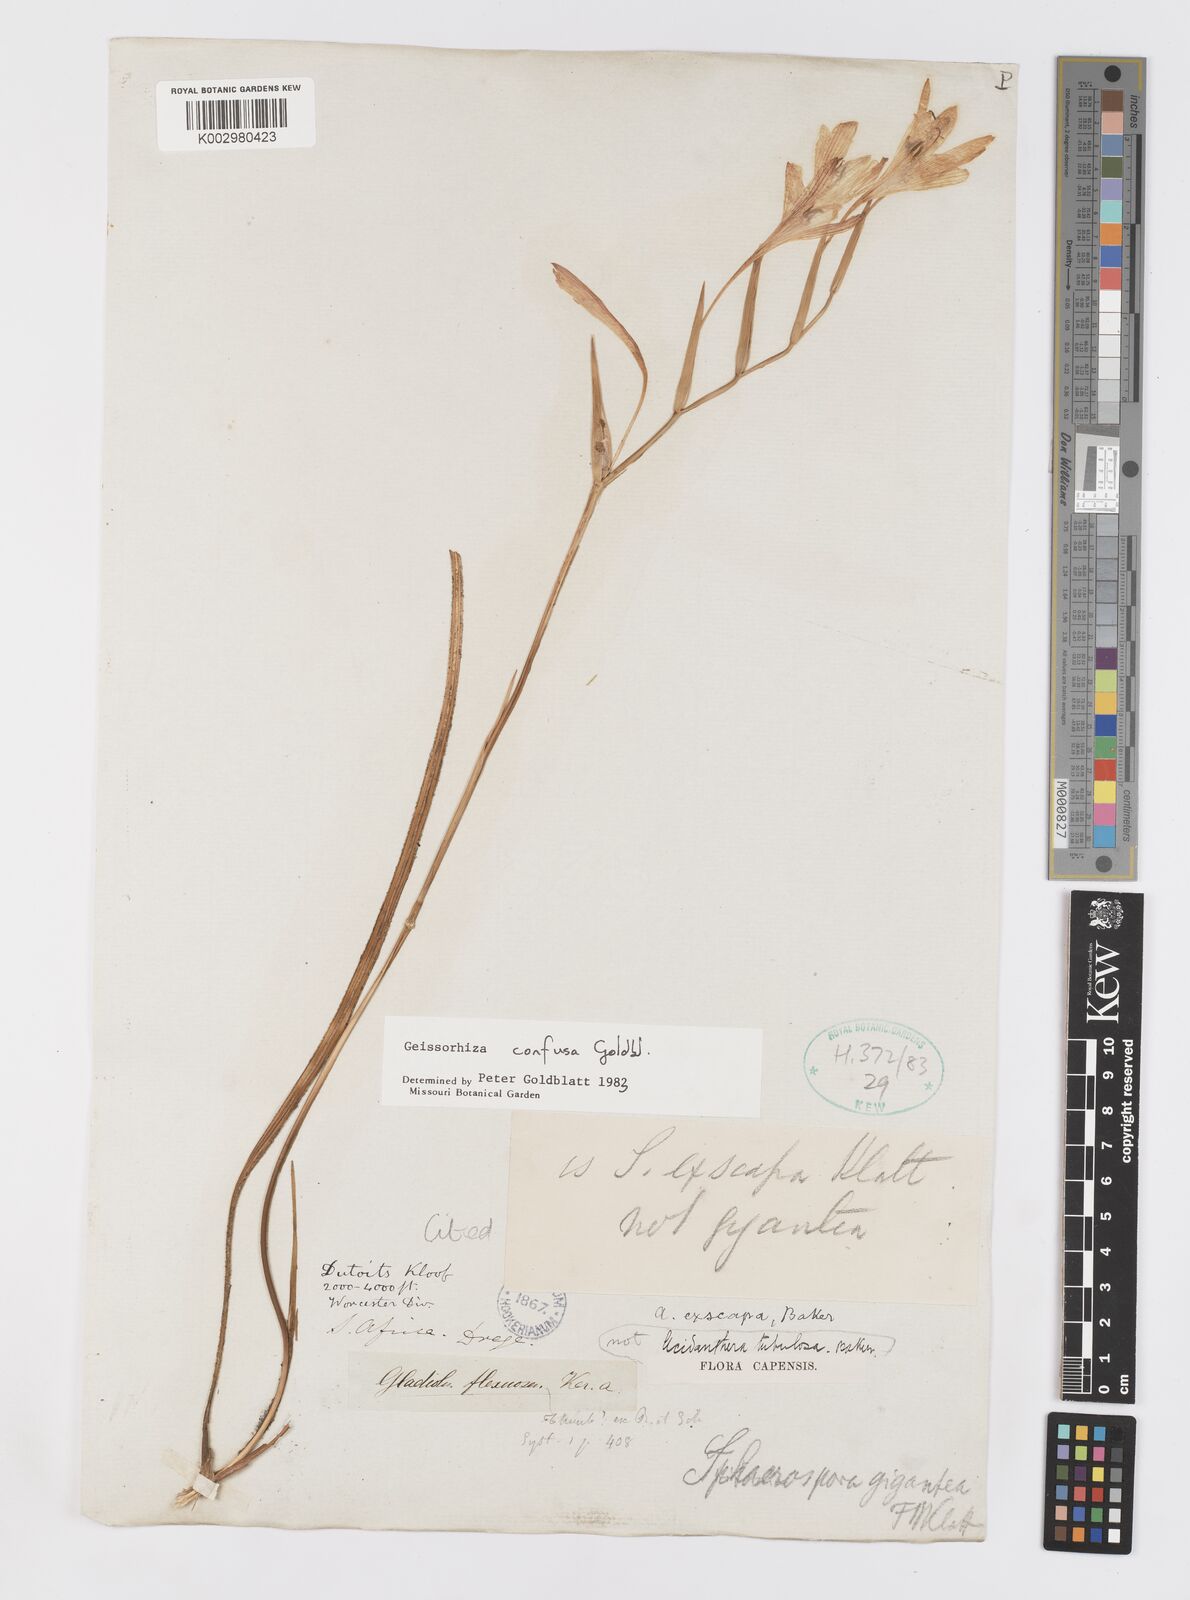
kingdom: Plantae
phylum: Tracheophyta
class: Liliopsida
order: Asparagales
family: Iridaceae
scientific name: Iridaceae
